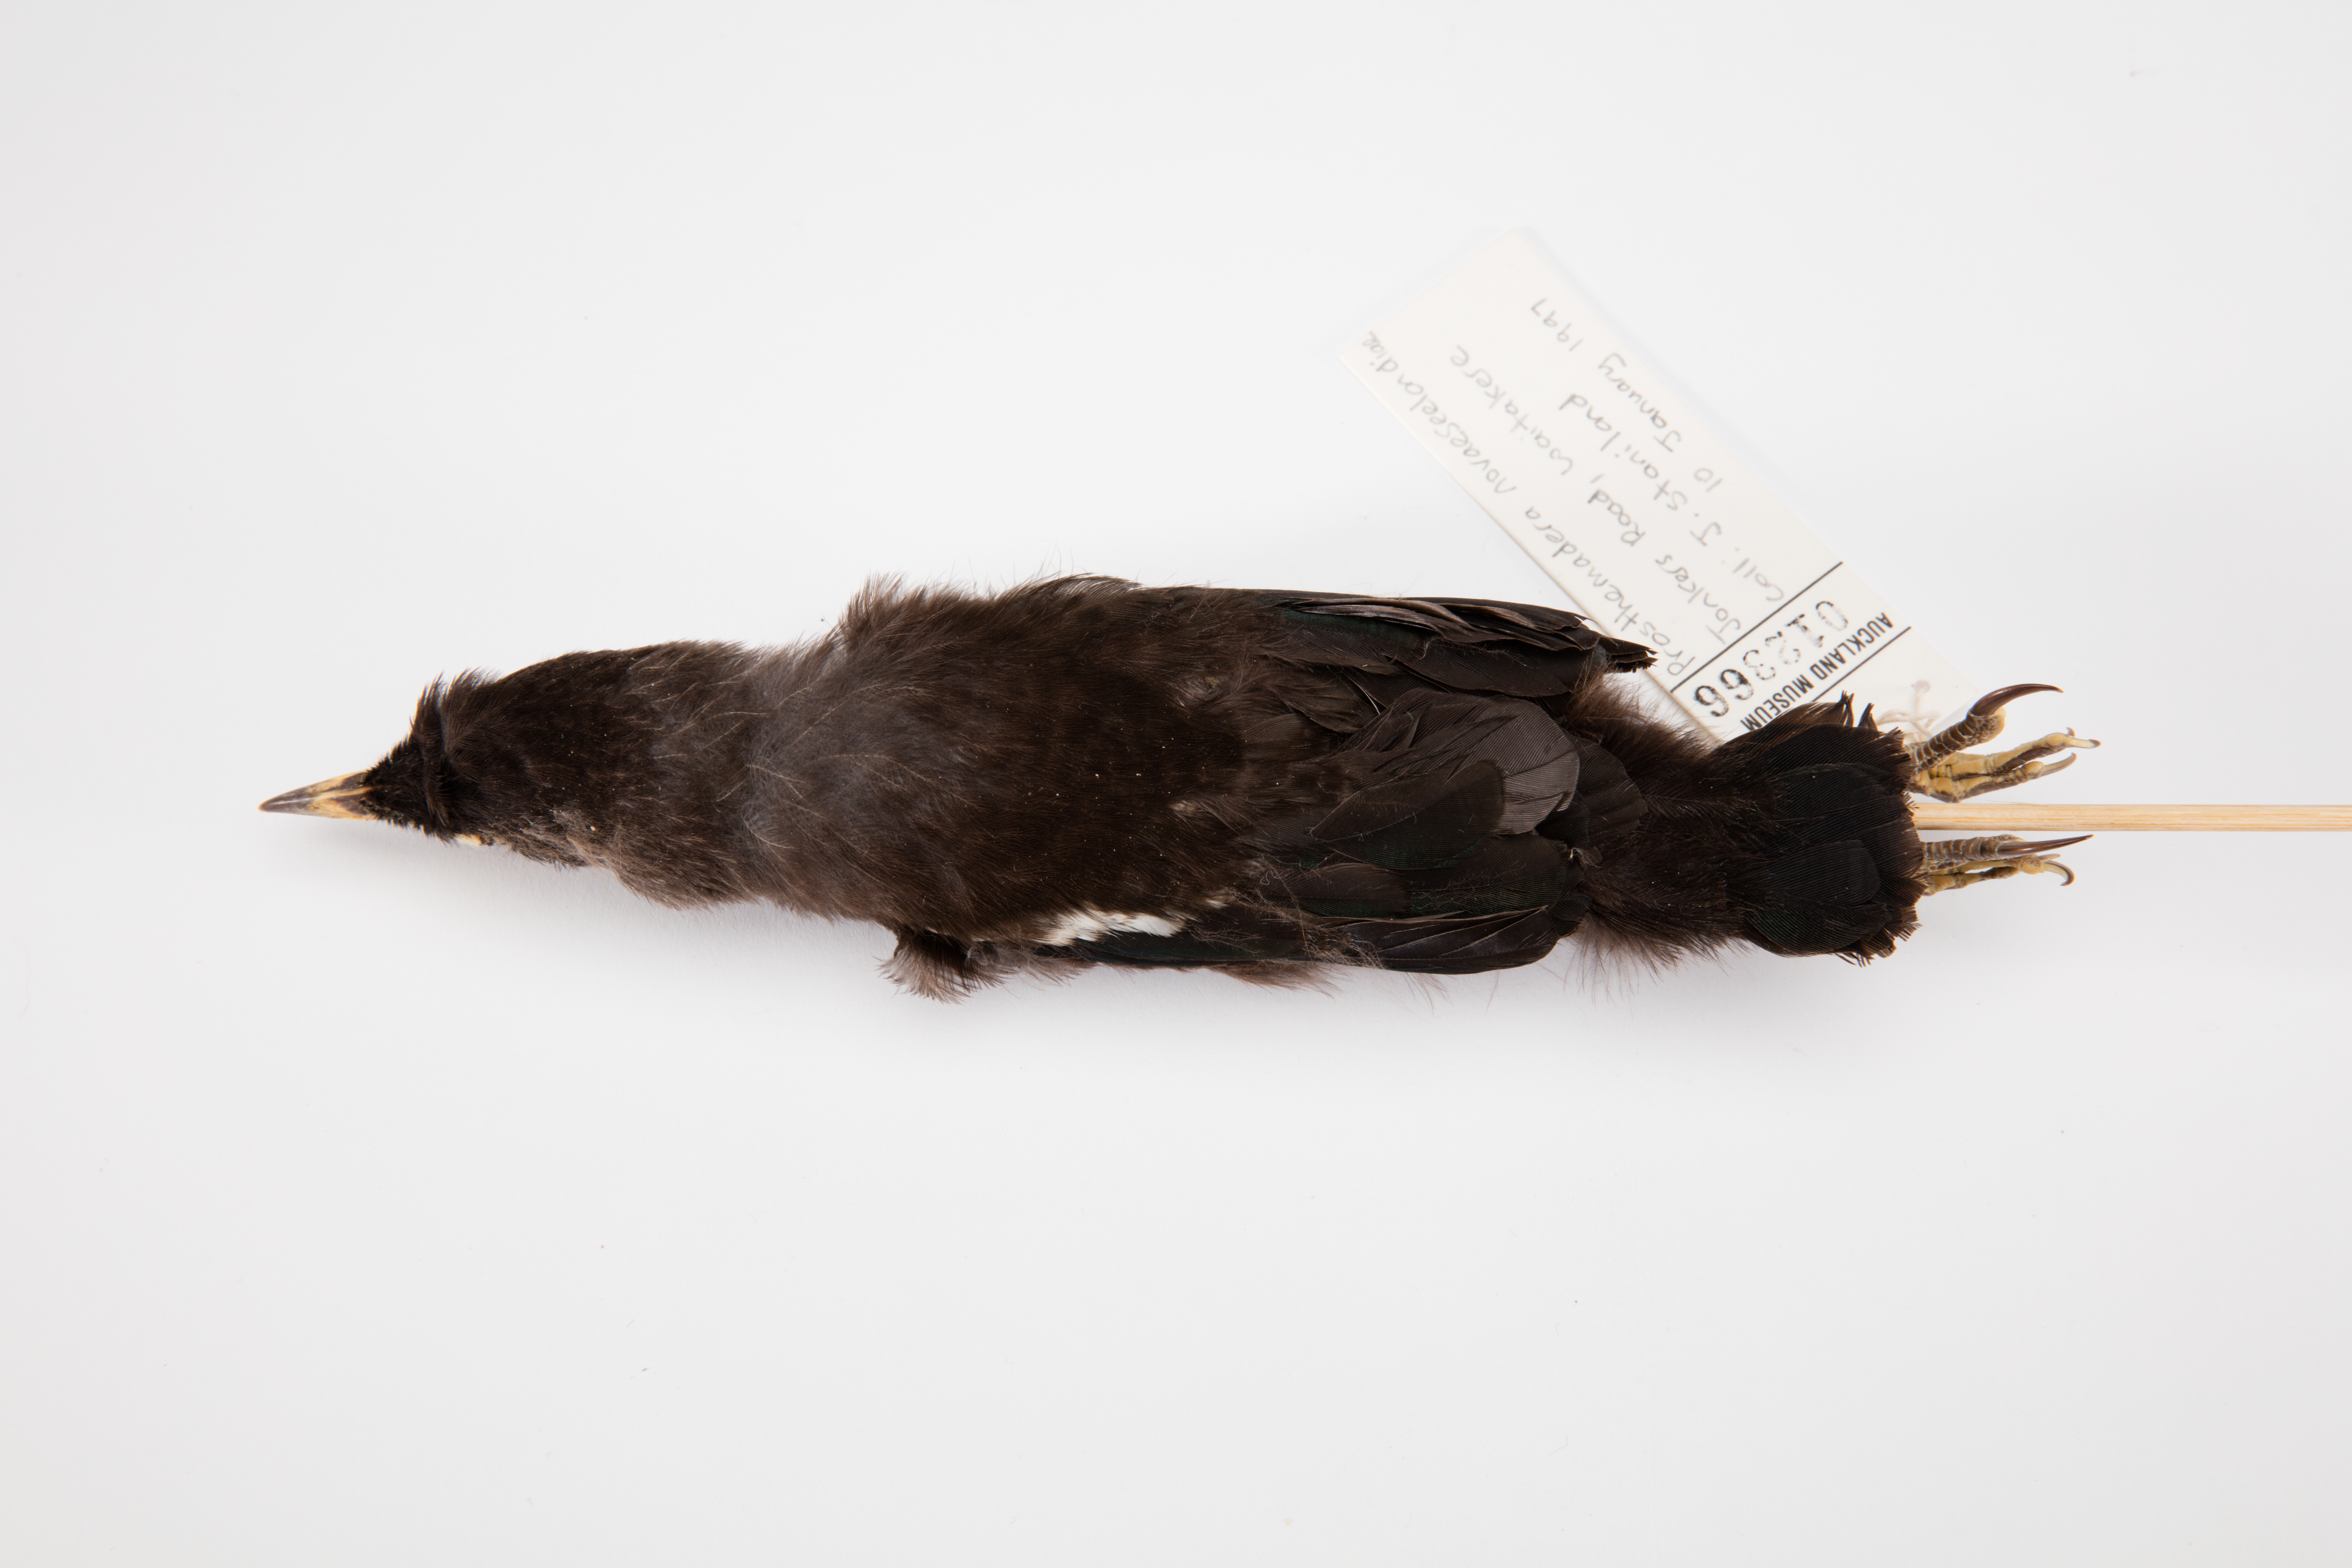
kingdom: Animalia
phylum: Chordata
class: Aves
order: Passeriformes
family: Meliphagidae
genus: Prosthemadera
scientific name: Prosthemadera novaeseelandiae
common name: Tui
